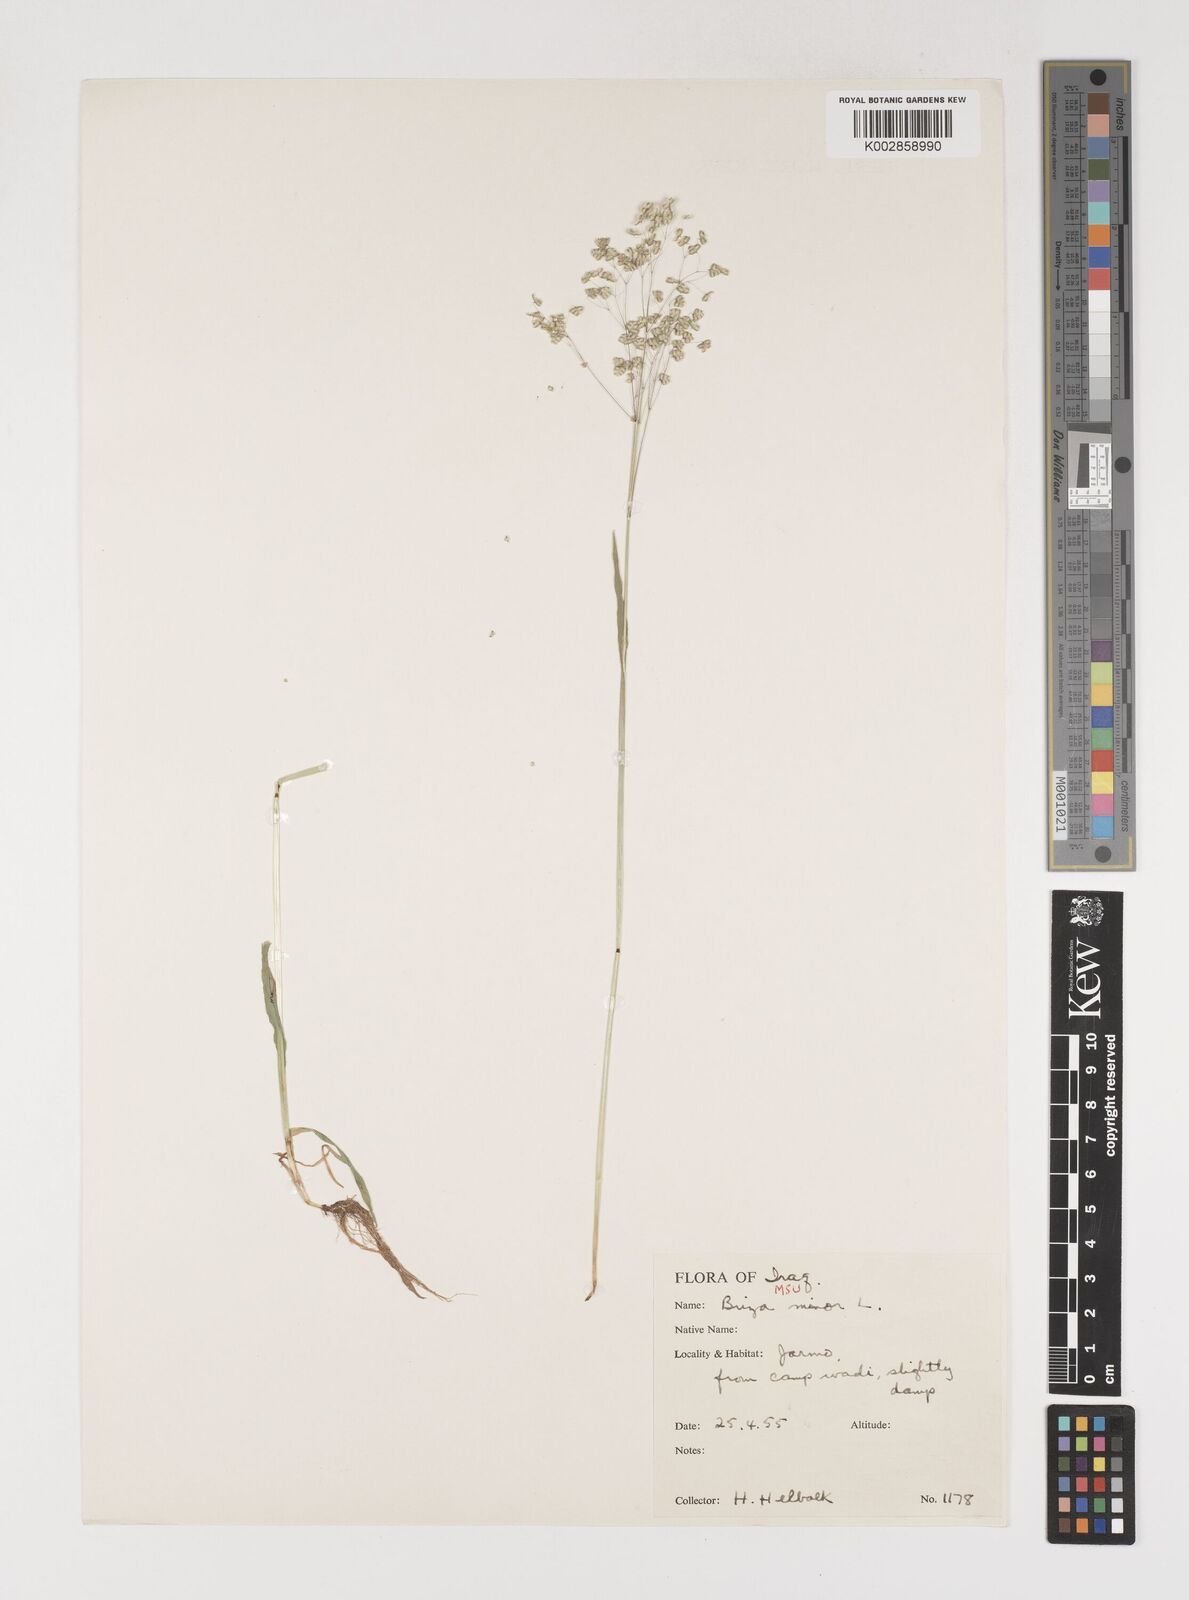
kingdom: Plantae
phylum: Tracheophyta
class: Liliopsida
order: Poales
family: Poaceae
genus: Briza
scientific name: Briza minor
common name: Lesser quaking-grass
